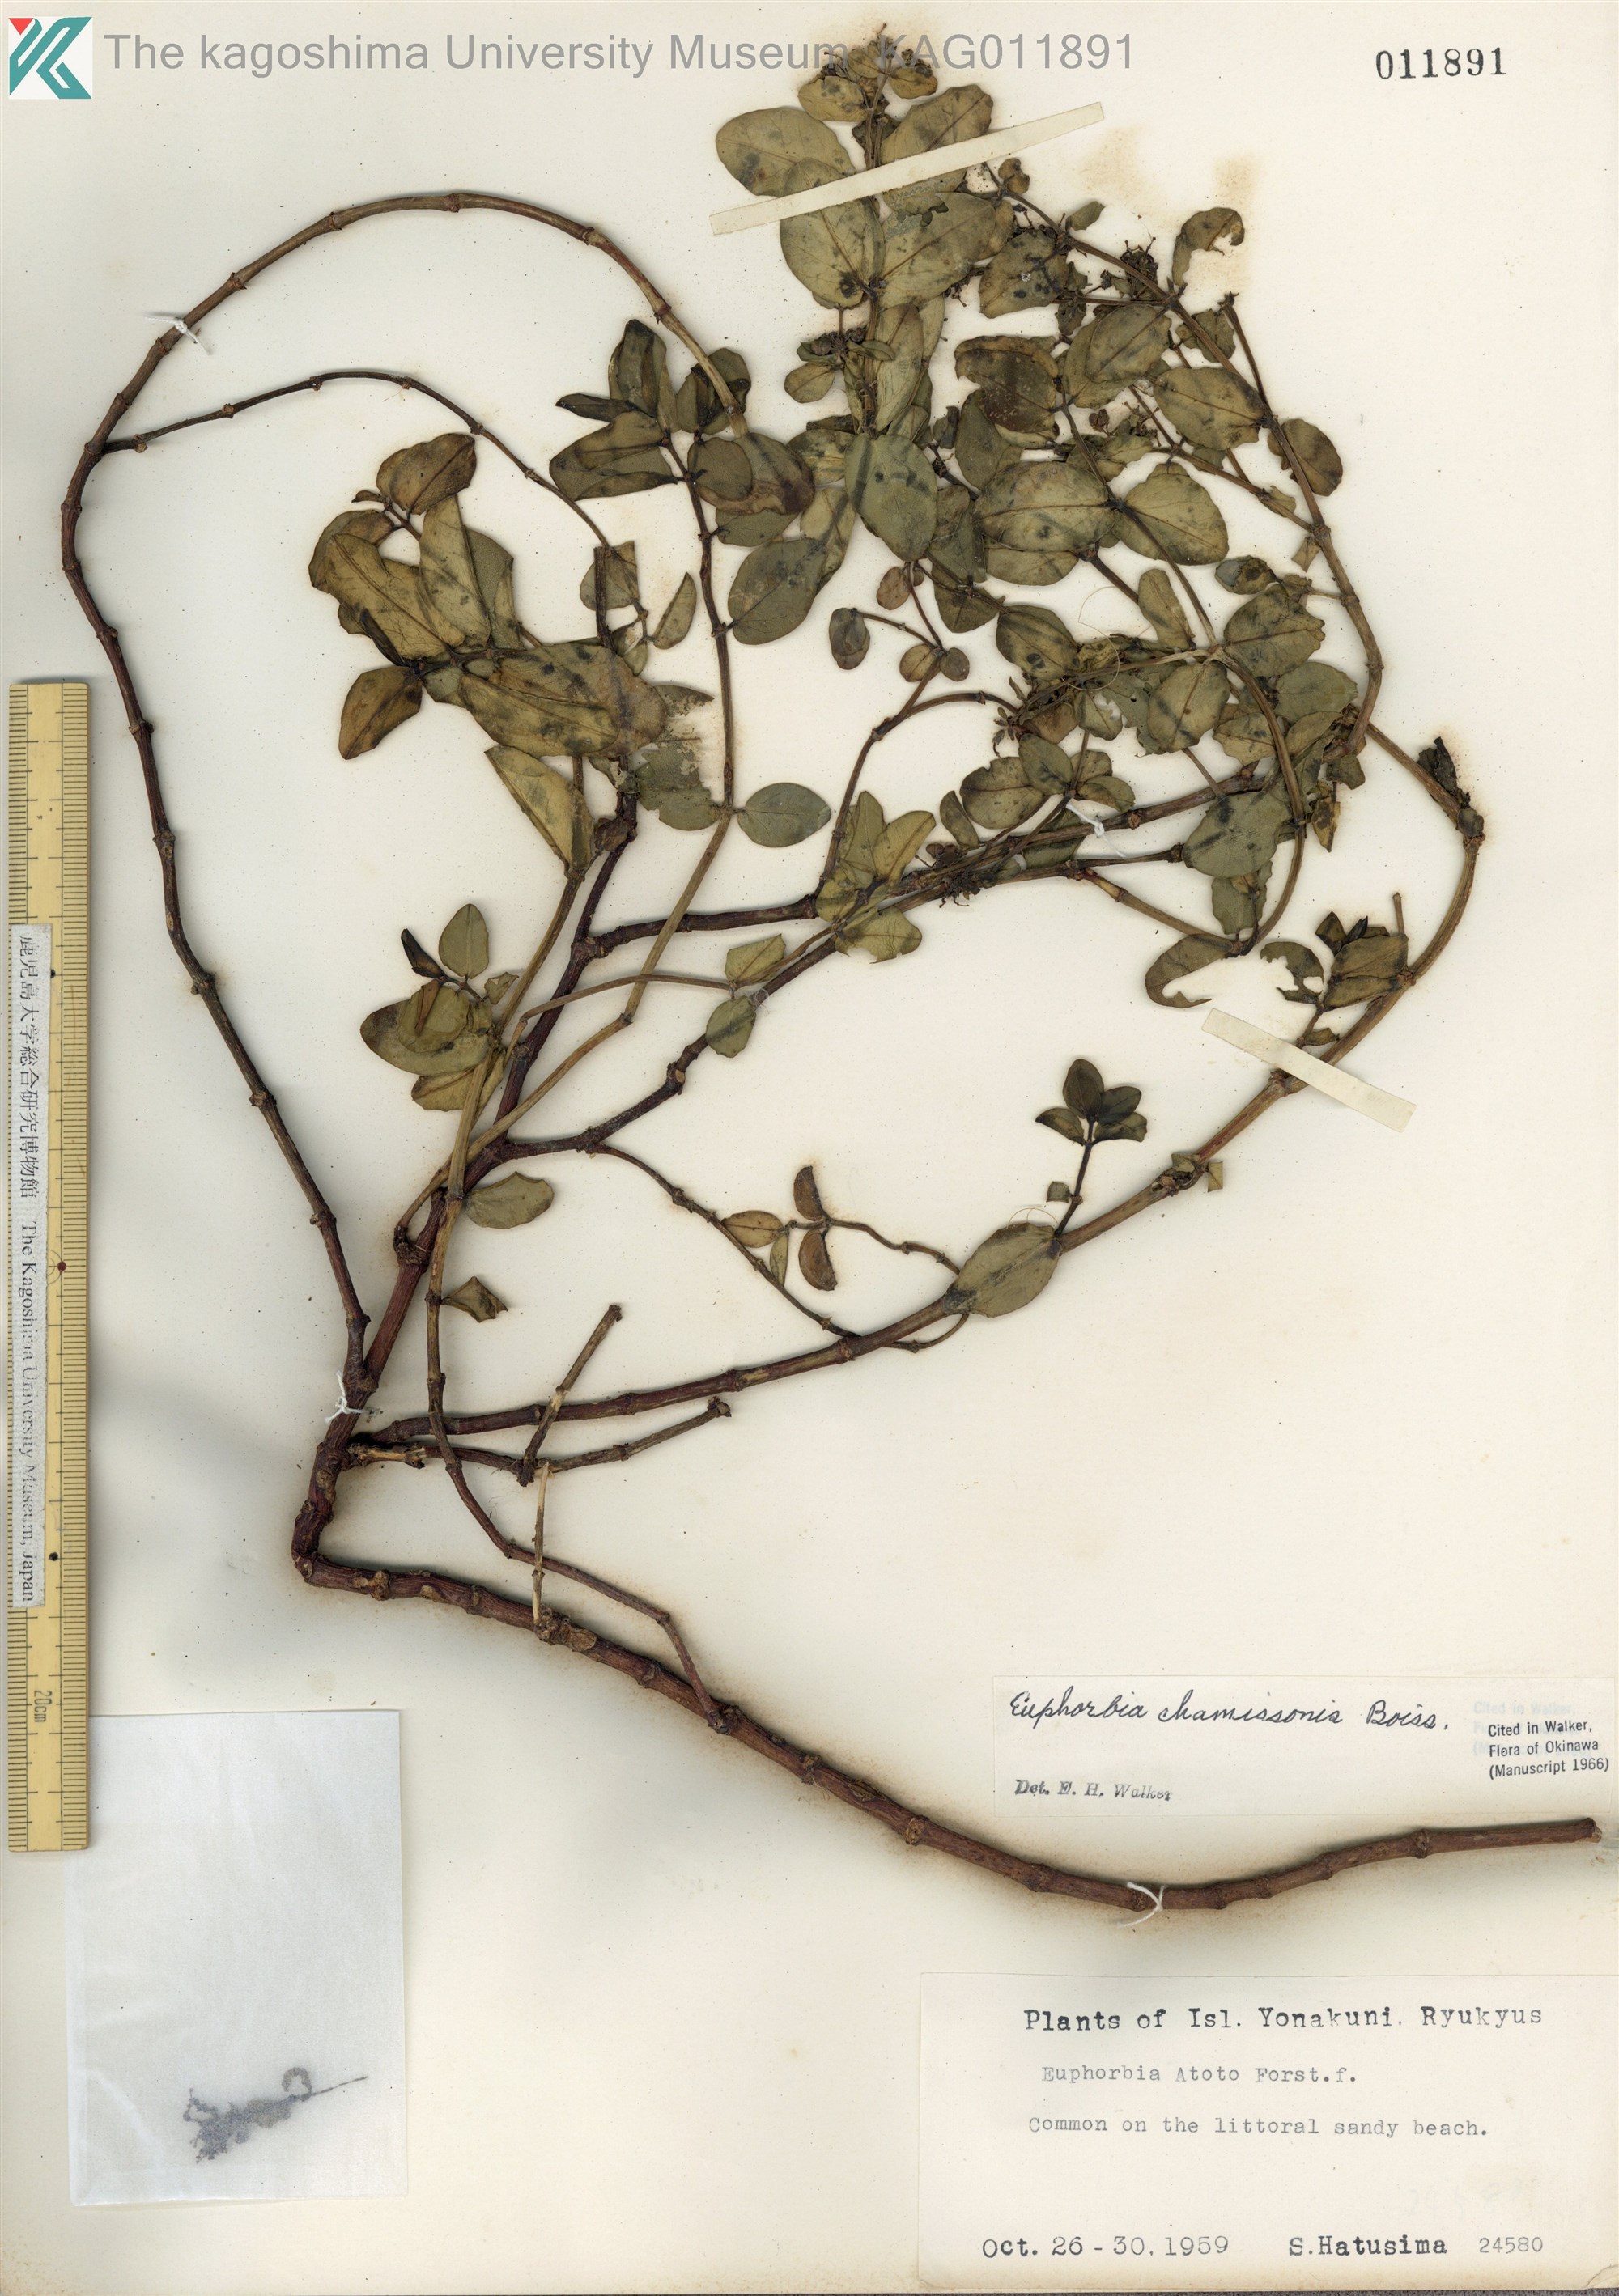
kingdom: Plantae
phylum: Tracheophyta
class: Magnoliopsida
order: Malpighiales
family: Euphorbiaceae
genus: Euphorbia
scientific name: Euphorbia chamissonis
